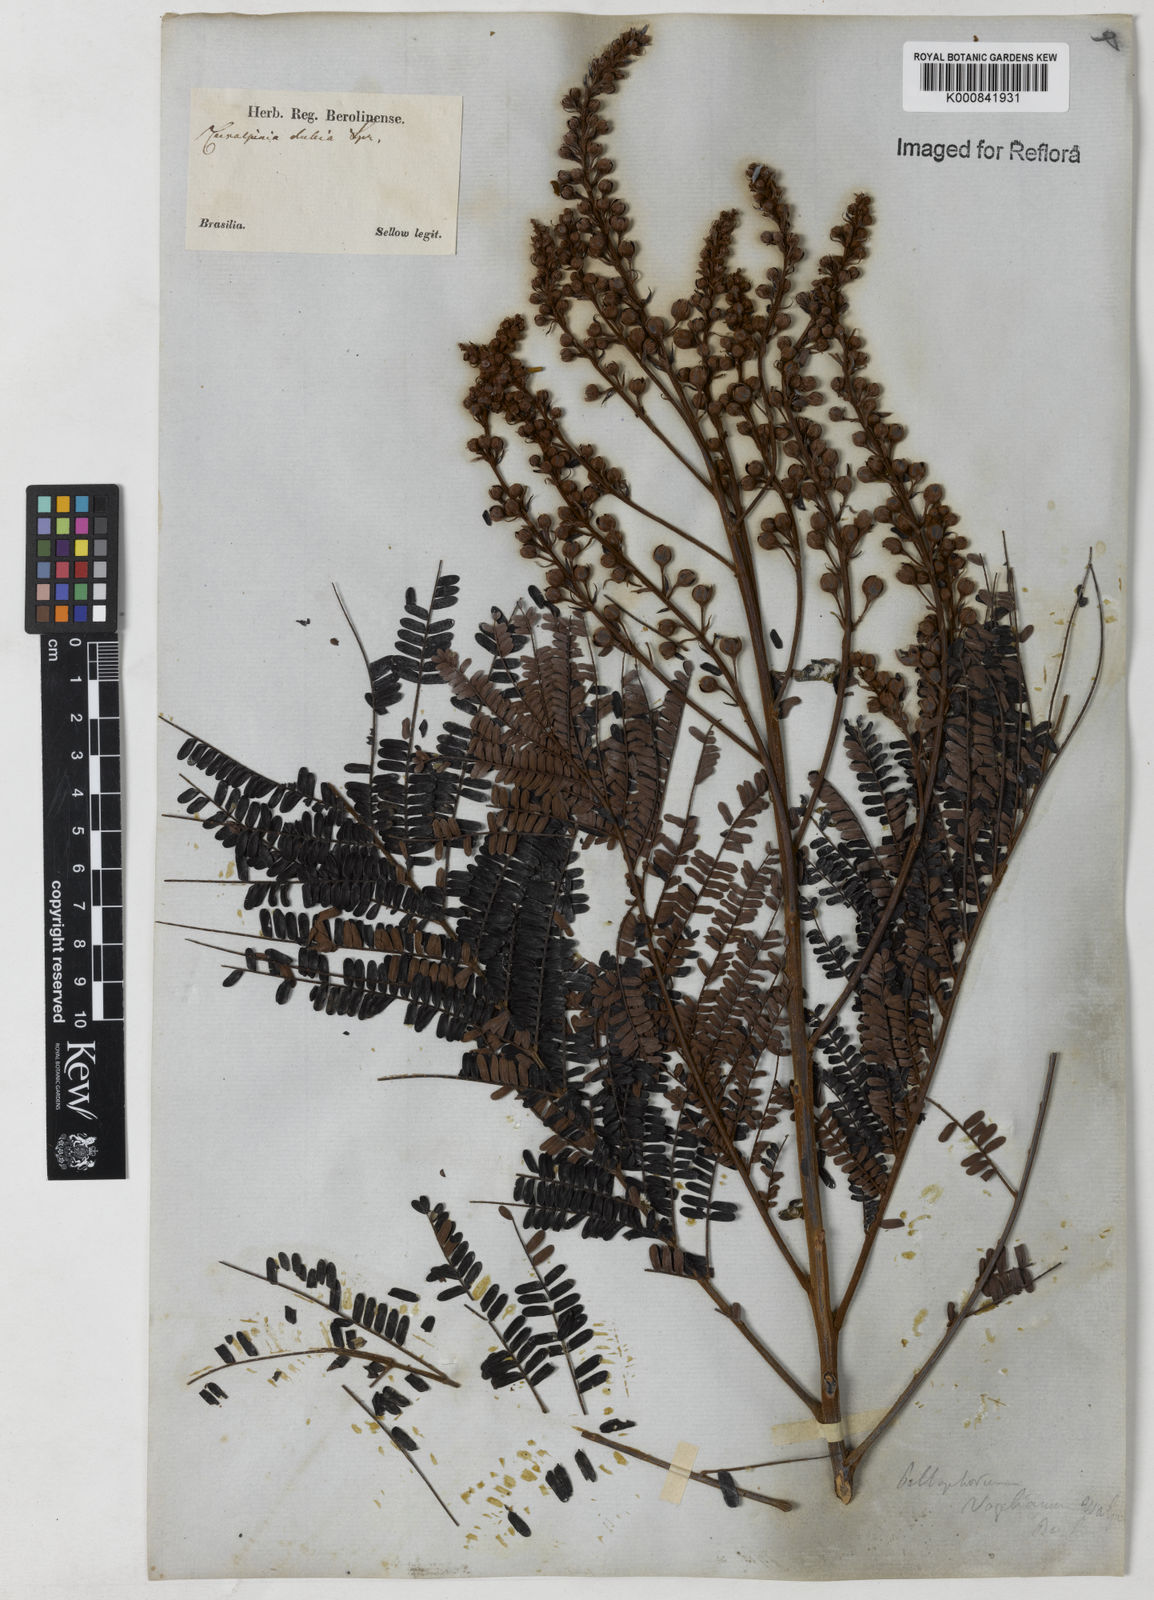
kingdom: Plantae
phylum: Tracheophyta
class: Magnoliopsida
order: Fabales
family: Fabaceae
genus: Peltophorum
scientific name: Peltophorum dubium
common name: Horsebush
